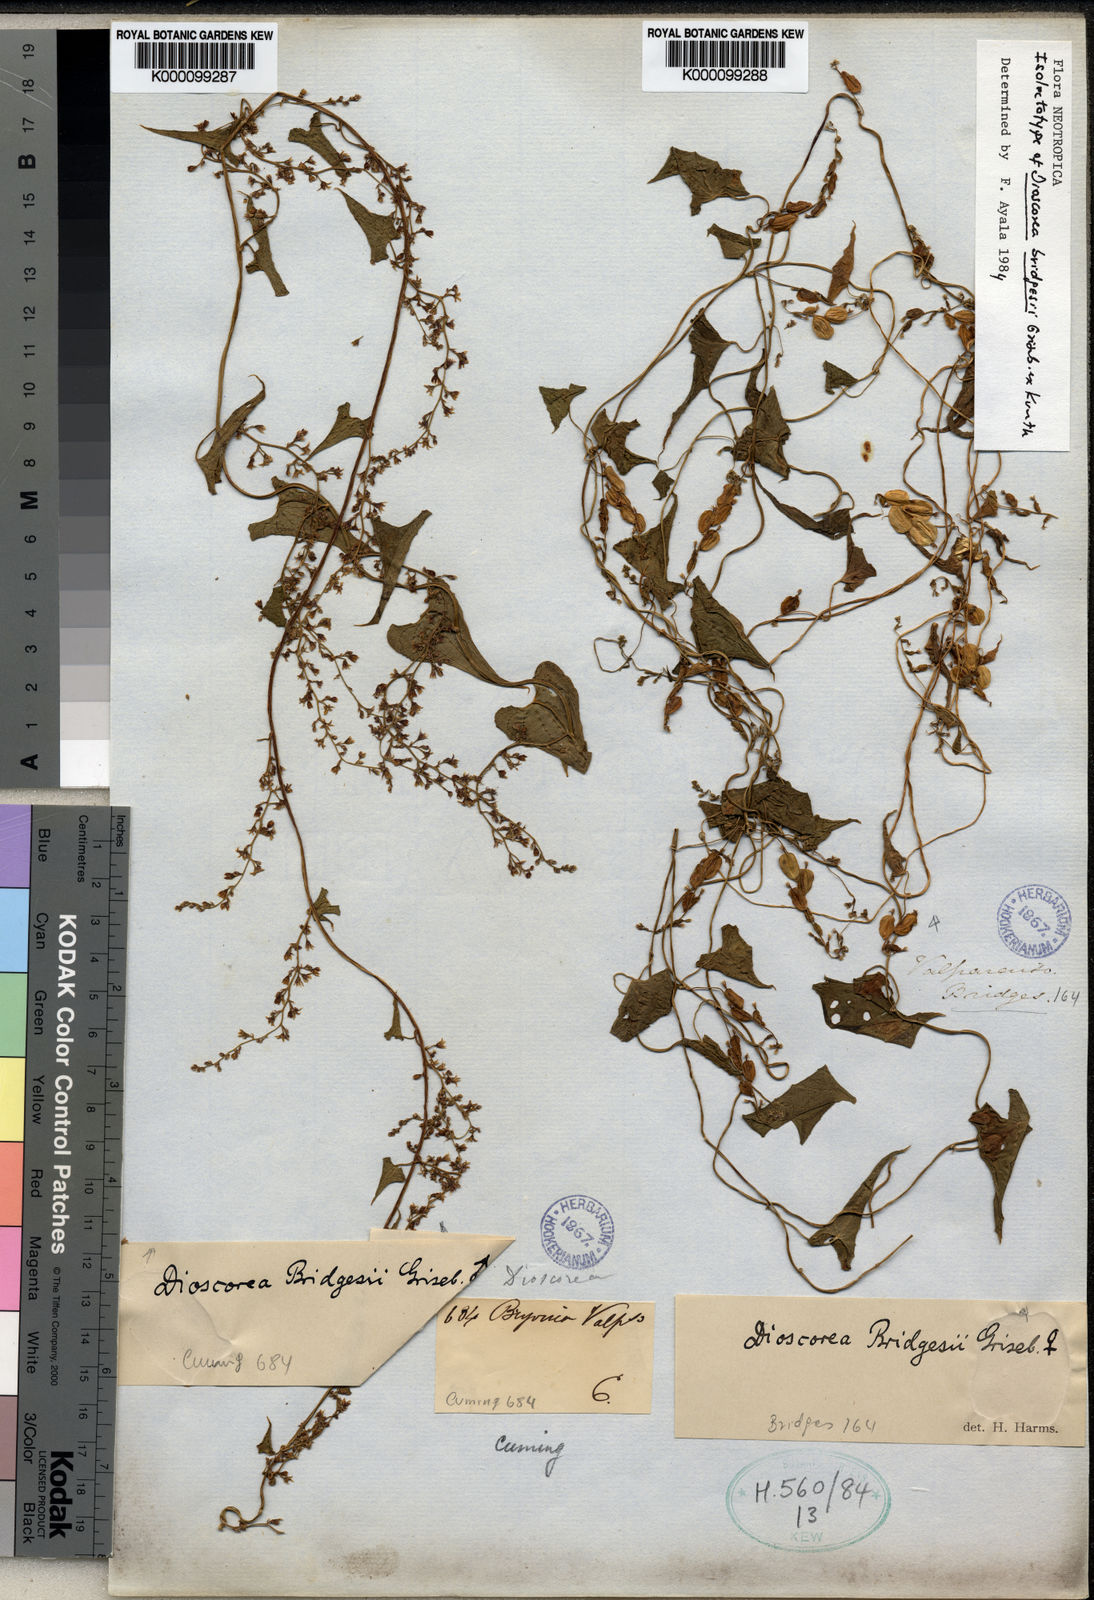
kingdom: Plantae
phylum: Tracheophyta
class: Liliopsida
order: Dioscoreales
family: Dioscoreaceae
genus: Dioscorea
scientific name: Dioscorea bridgesii
